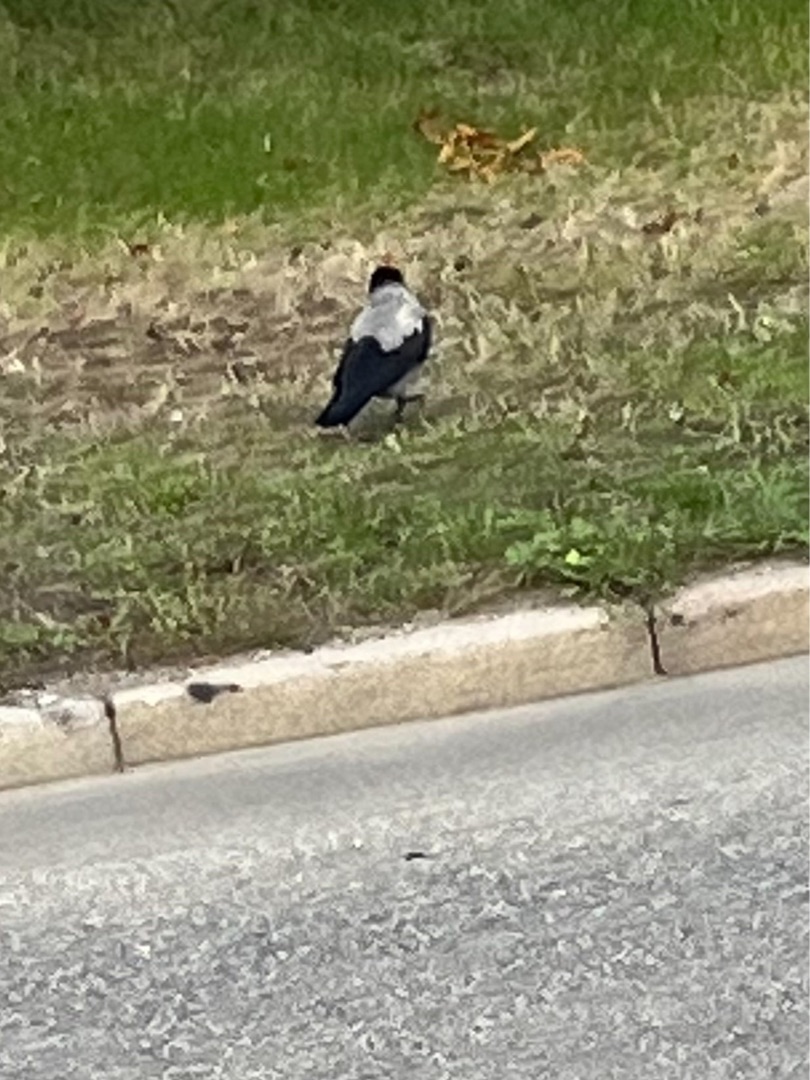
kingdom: Animalia
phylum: Chordata
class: Aves
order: Passeriformes
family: Corvidae
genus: Corvus
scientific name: Corvus cornix
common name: Gråkrage
